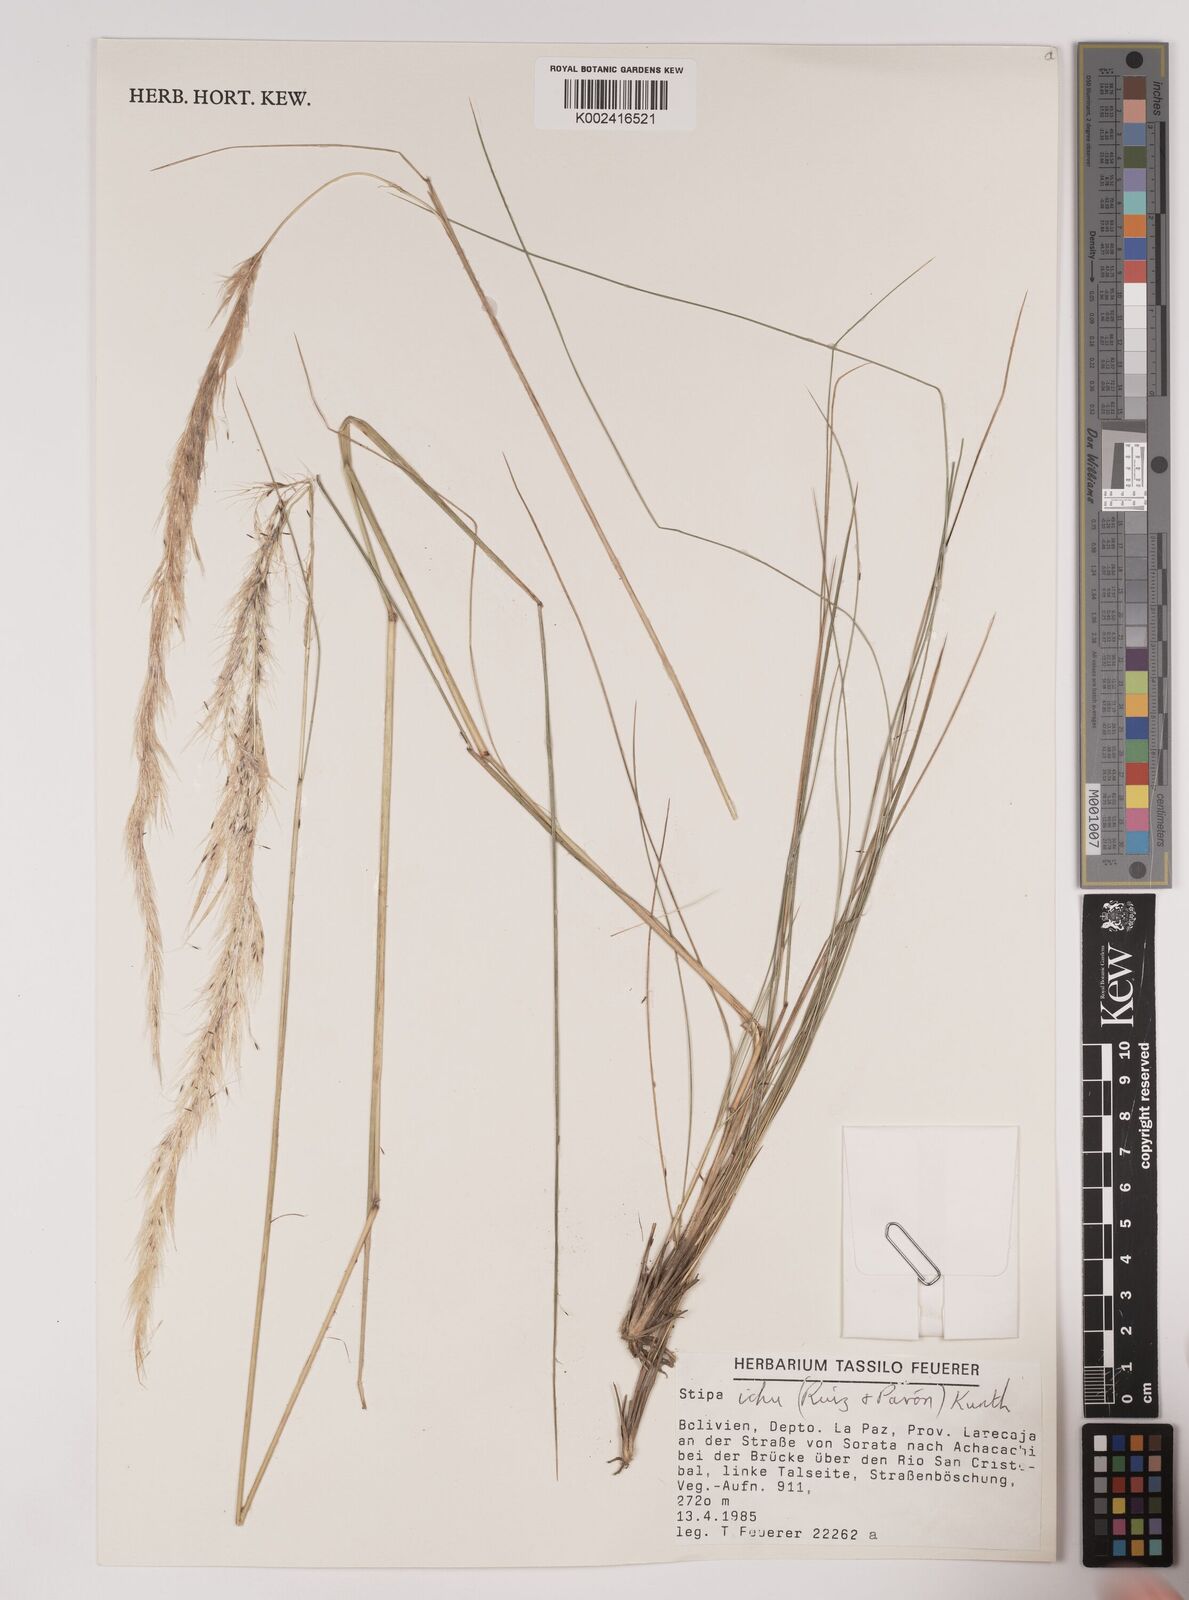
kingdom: Plantae
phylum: Tracheophyta
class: Liliopsida
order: Poales
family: Poaceae
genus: Jarava
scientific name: Jarava ichu
